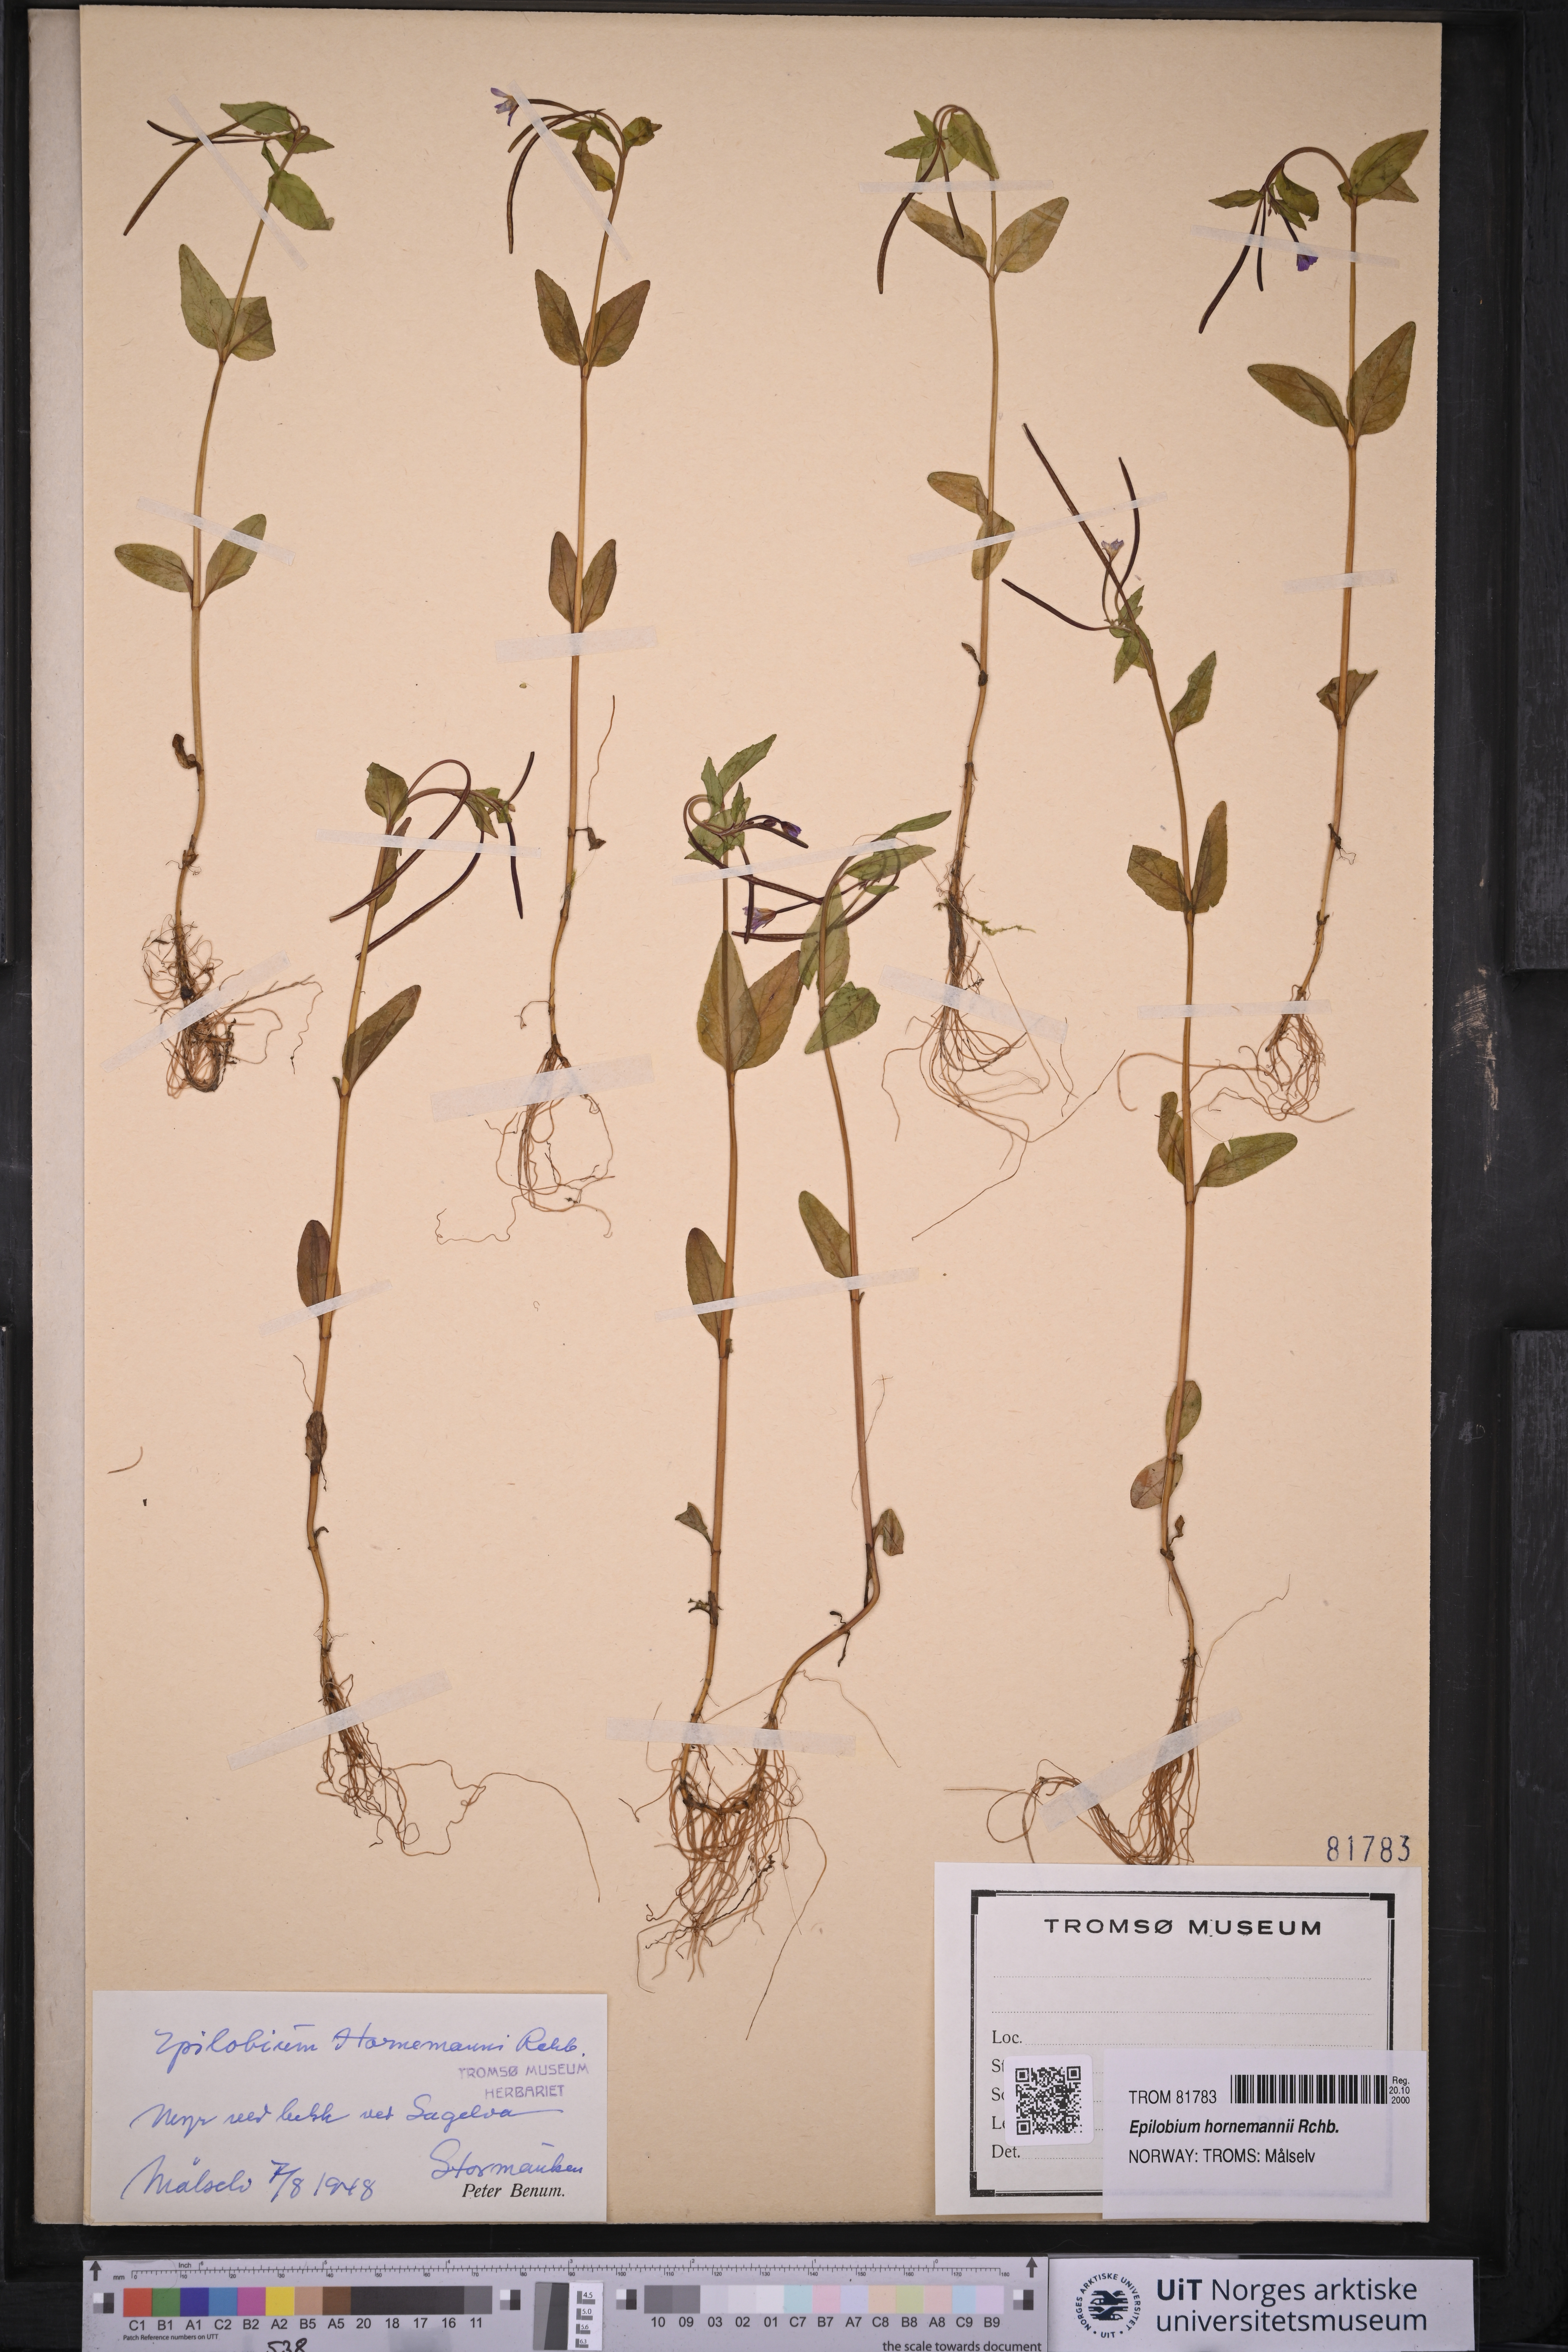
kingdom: Plantae
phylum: Tracheophyta
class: Magnoliopsida
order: Myrtales
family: Onagraceae
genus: Epilobium
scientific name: Epilobium hornemannii
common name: Hornemann's willowherb
